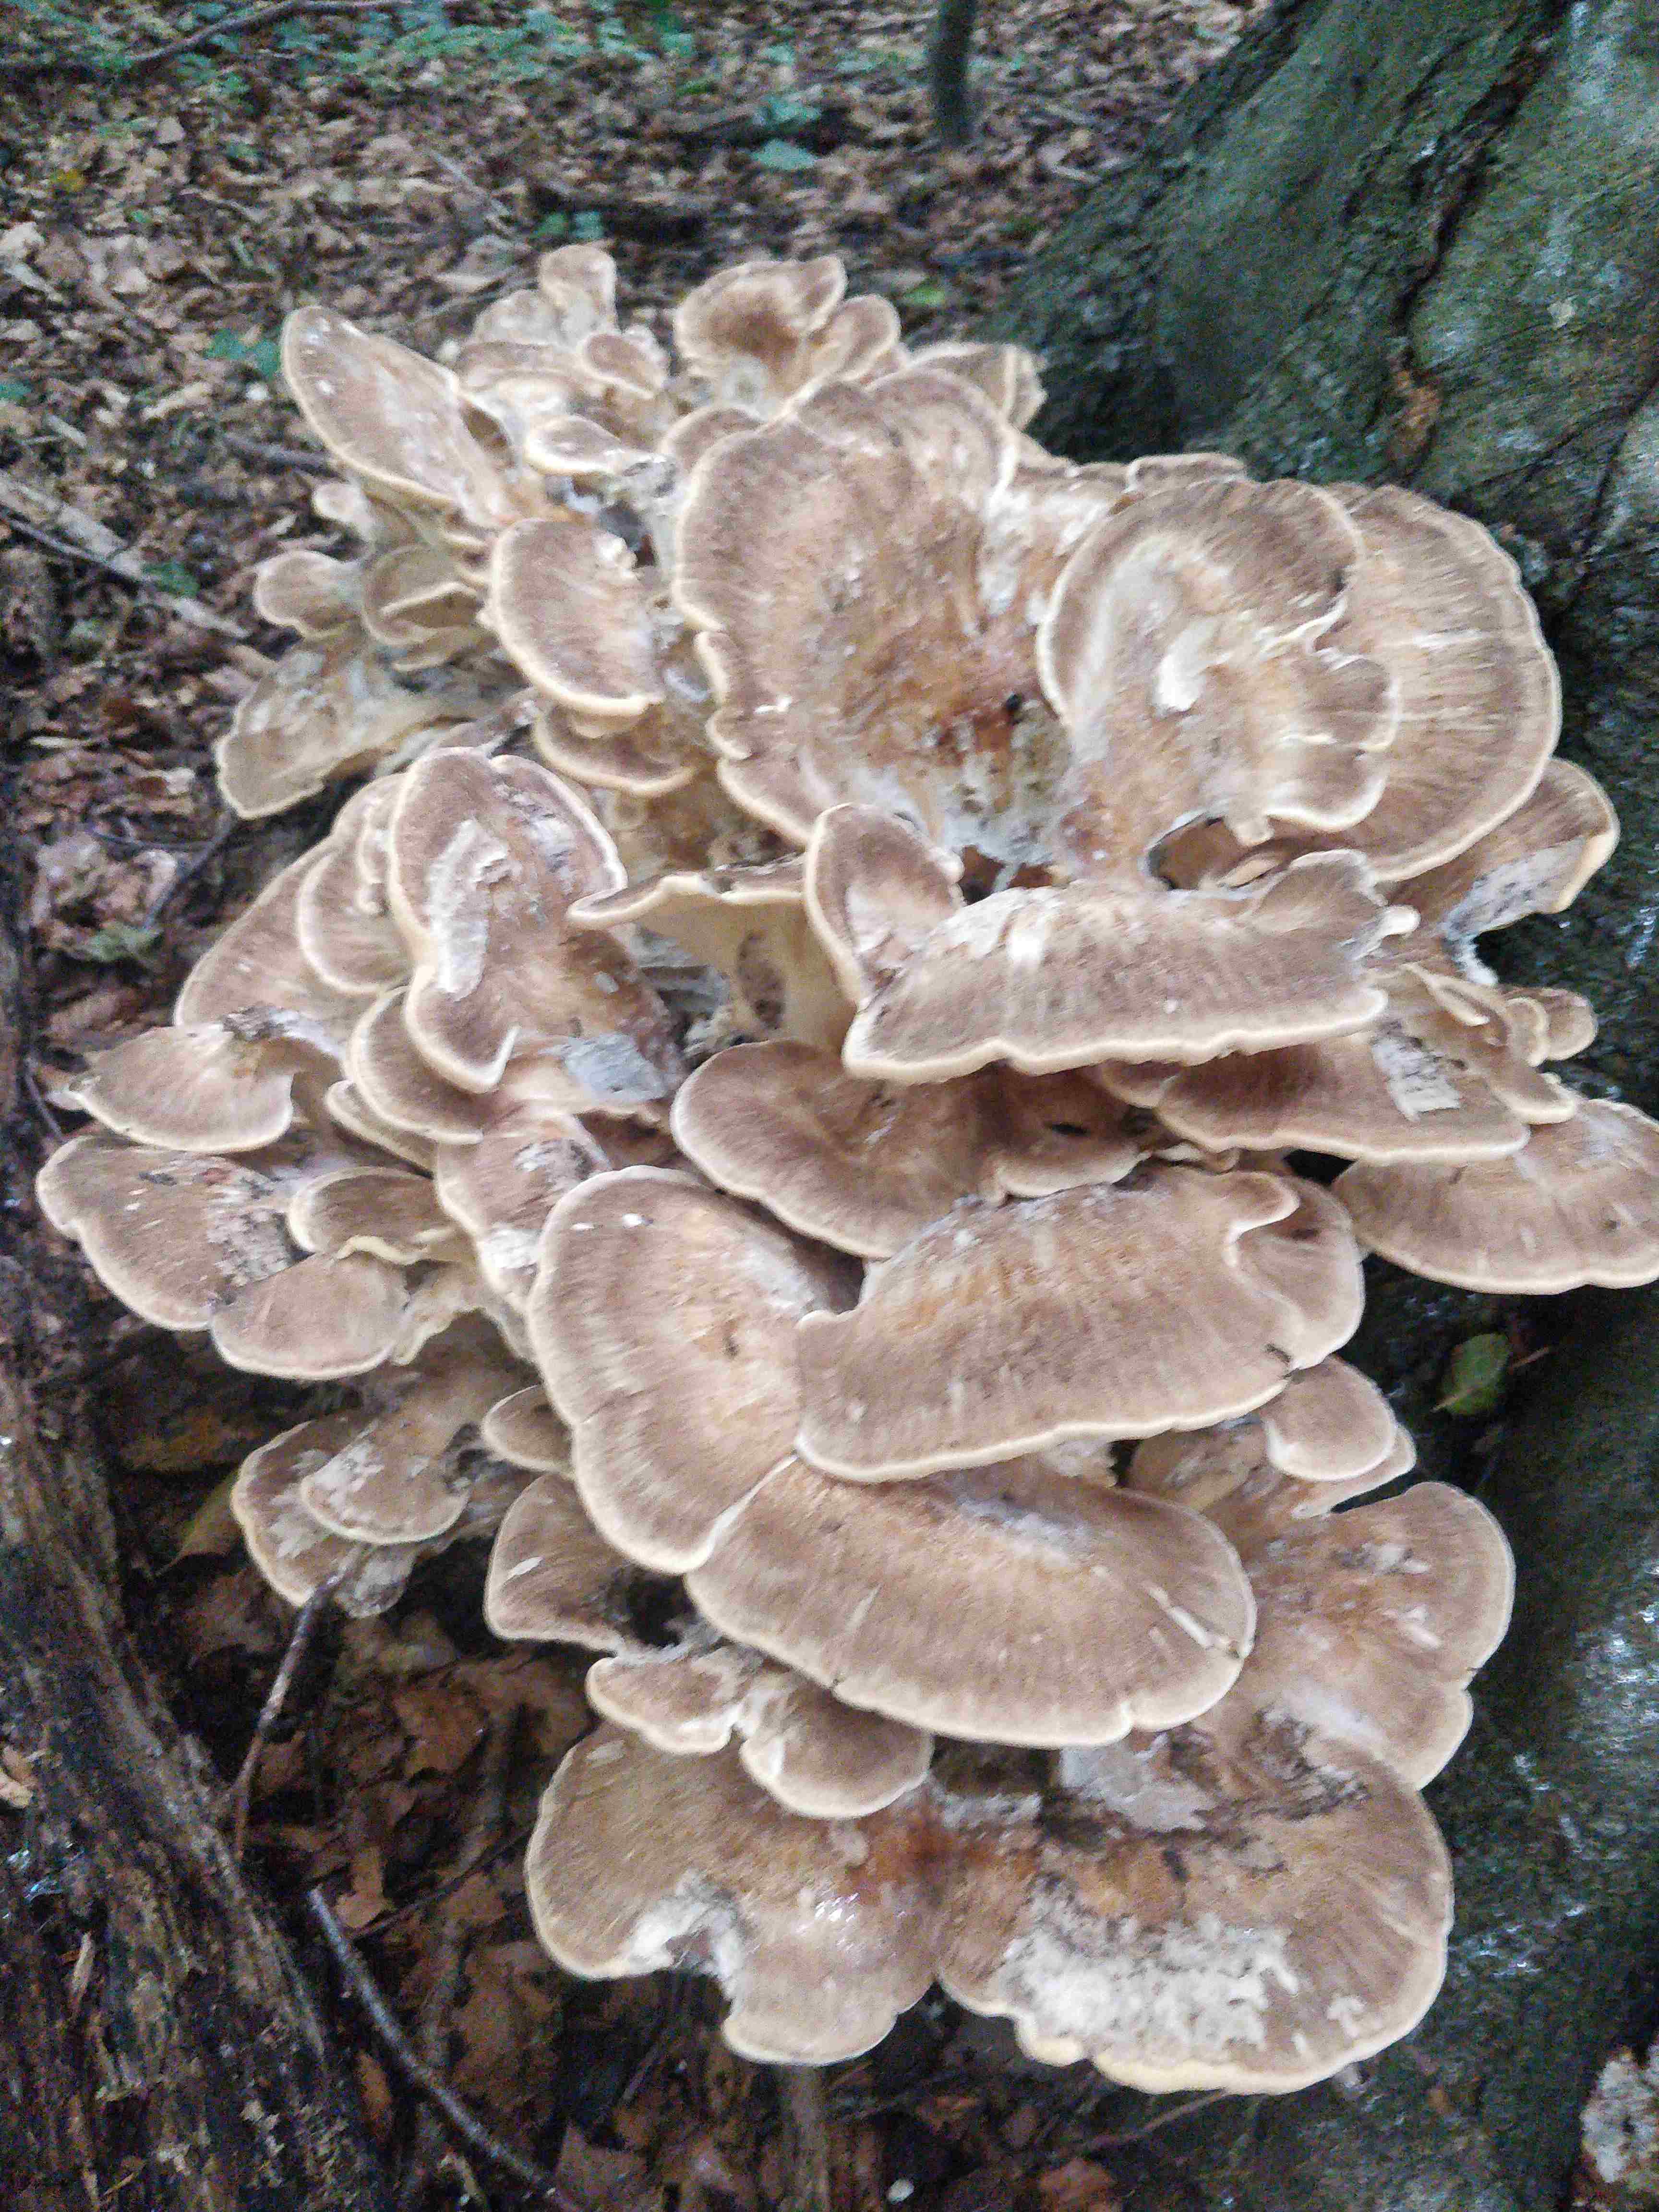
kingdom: Fungi
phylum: Basidiomycota
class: Agaricomycetes
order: Polyporales
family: Meripilaceae
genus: Meripilus
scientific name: Meripilus giganteus
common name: kæmpeporesvamp
